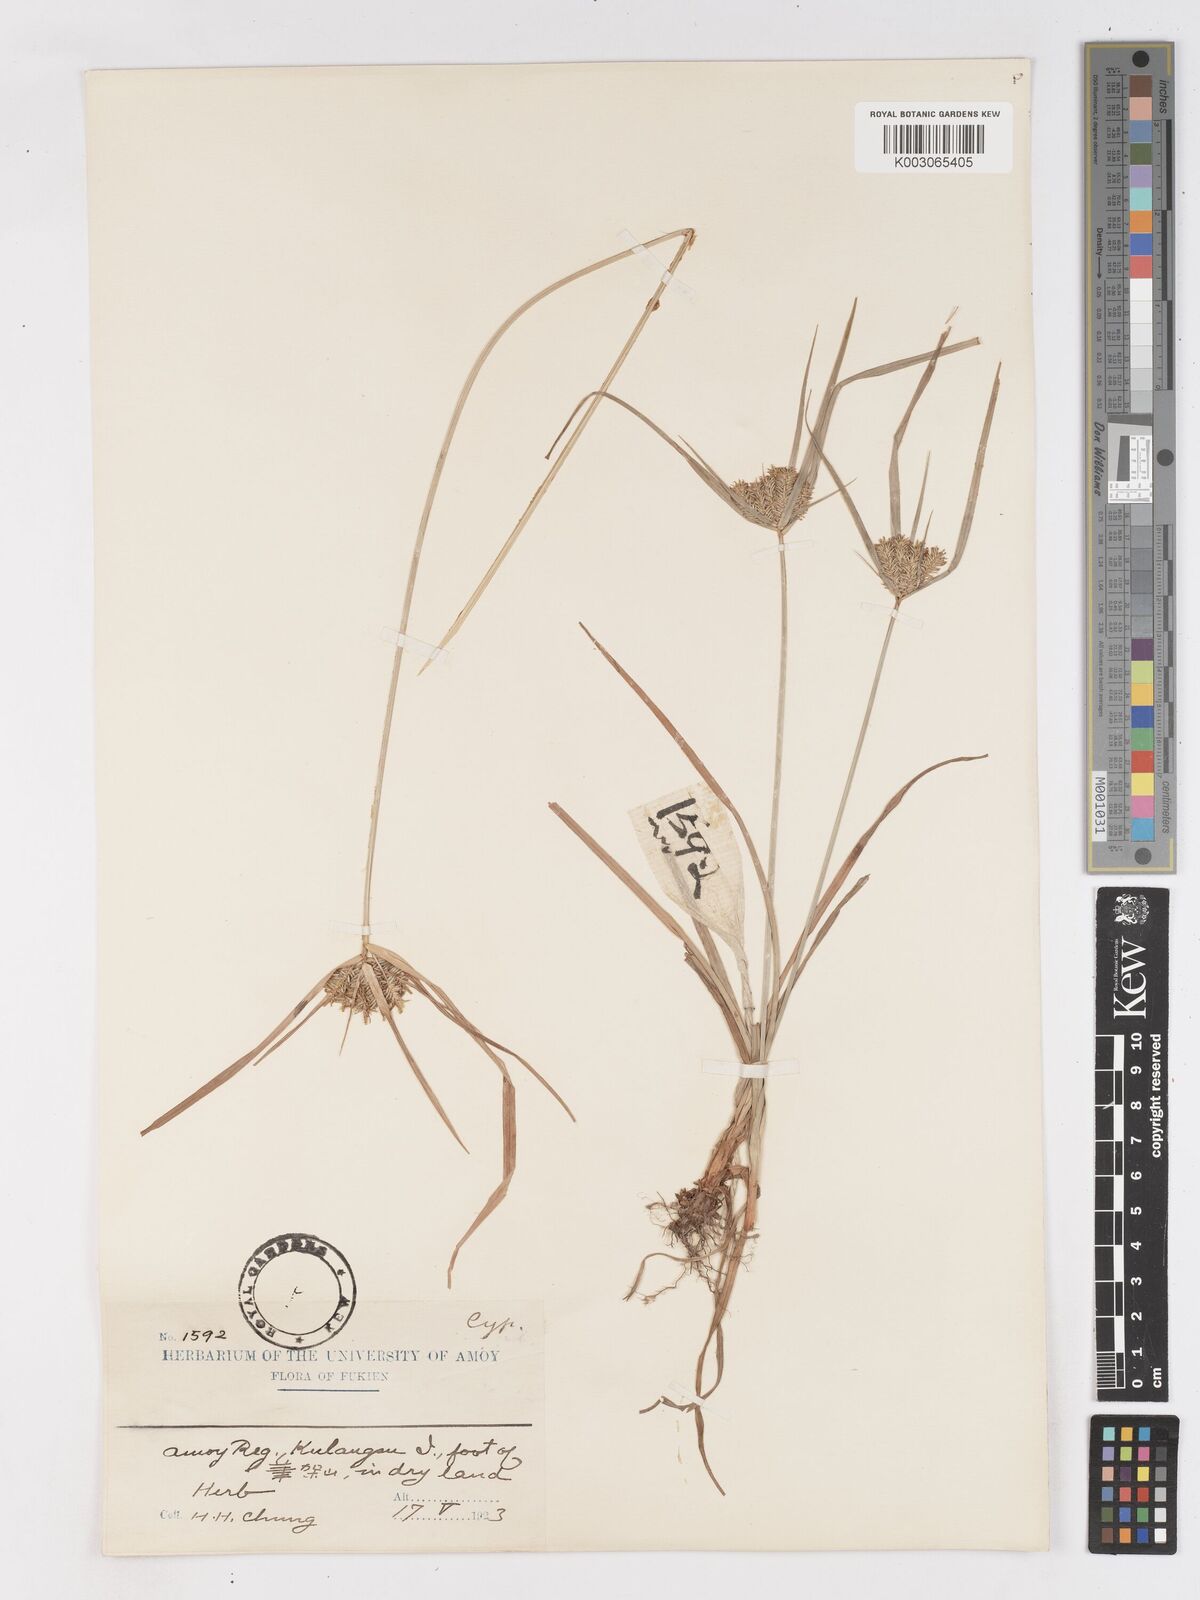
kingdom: Plantae
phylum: Tracheophyta
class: Liliopsida
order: Poales
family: Cyperaceae
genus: Cyperus
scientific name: Cyperus cyperoides
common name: Pacific island flat sedge
